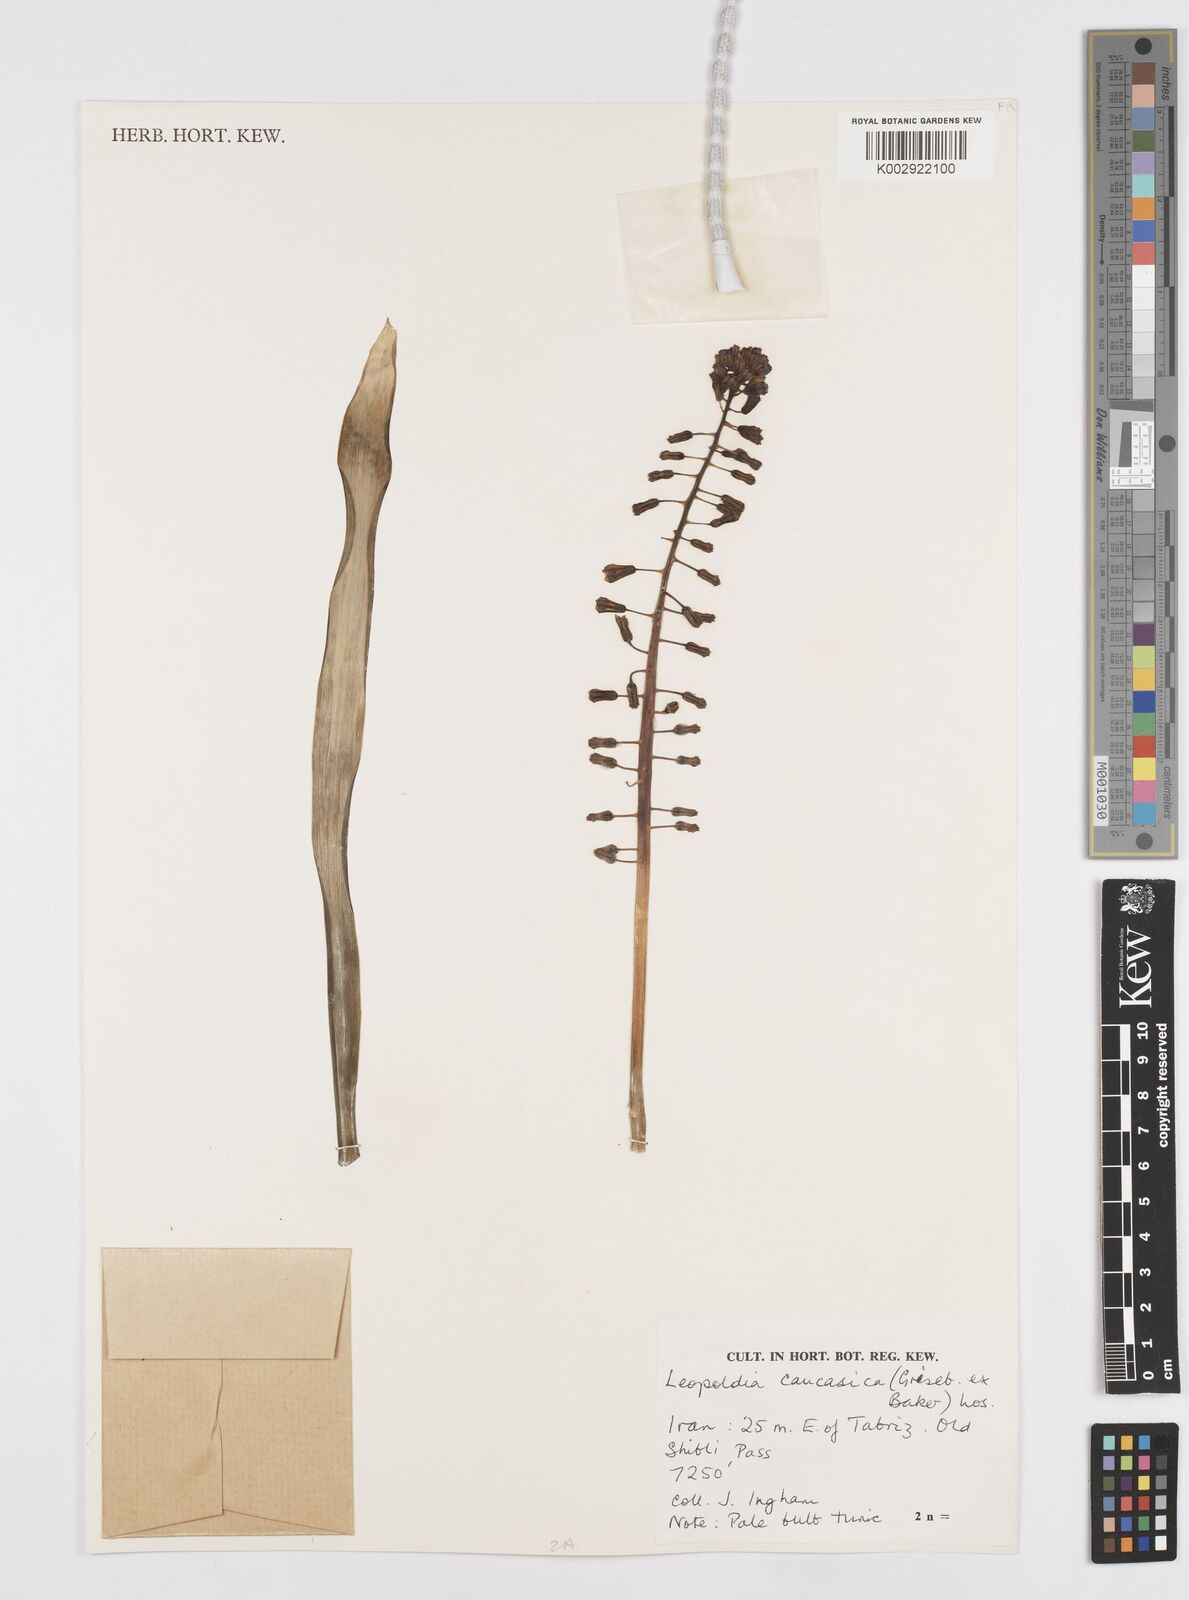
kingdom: Plantae
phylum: Tracheophyta
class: Liliopsida
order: Asparagales
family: Asparagaceae
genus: Muscari
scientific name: Muscari caucasicum
